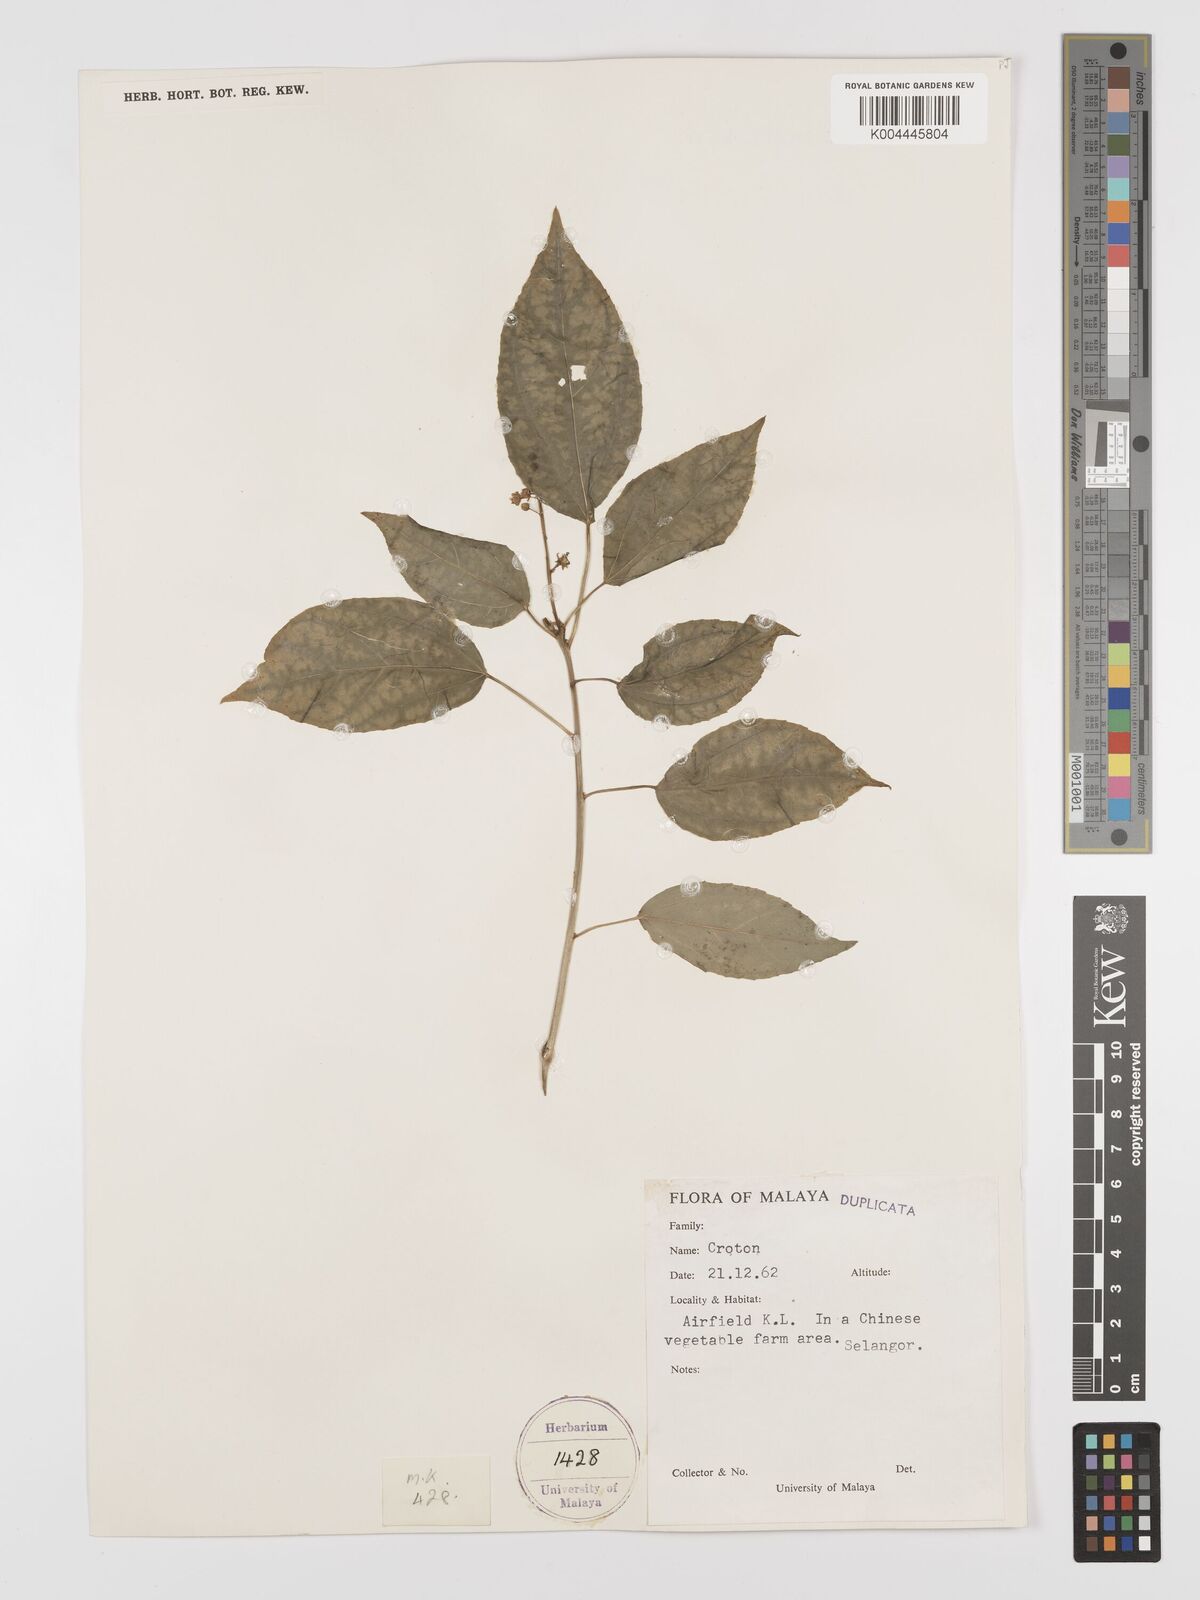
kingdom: Plantae
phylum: Tracheophyta
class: Magnoliopsida
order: Malpighiales
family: Euphorbiaceae
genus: Croton
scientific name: Croton caudatus
